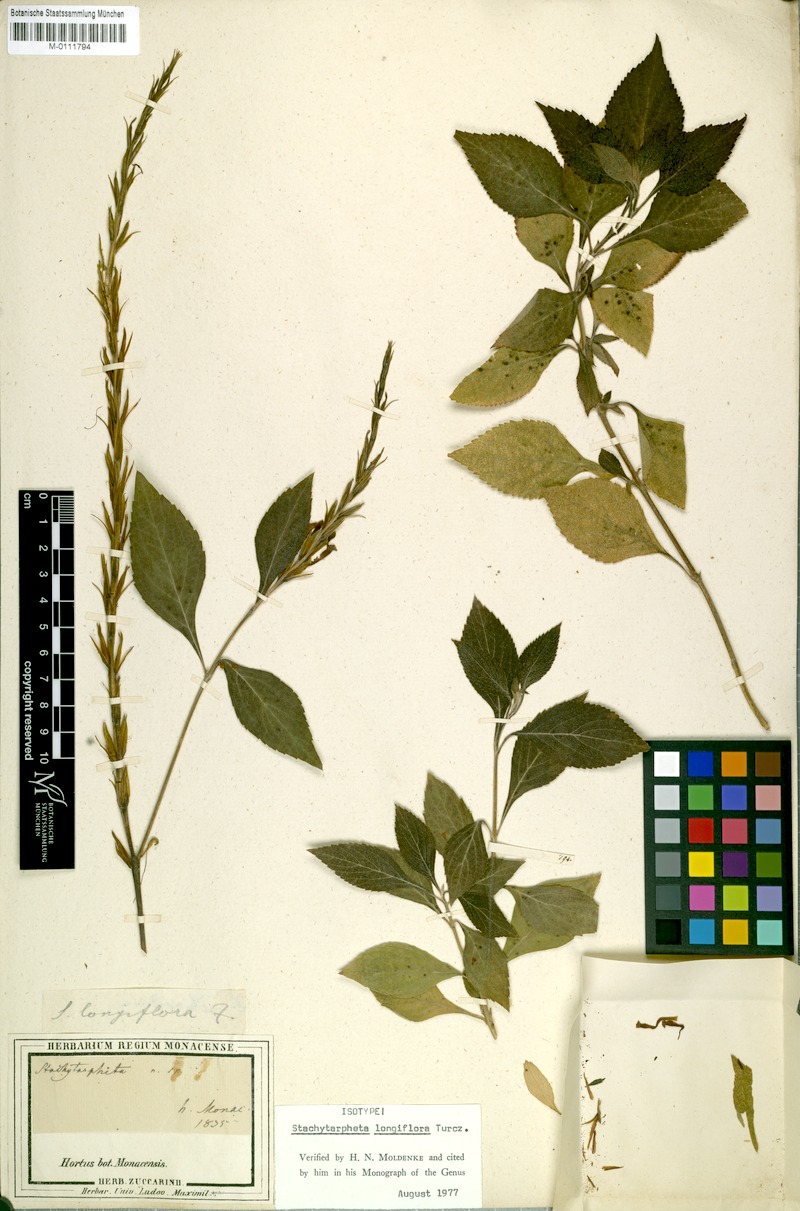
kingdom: Plantae
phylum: Tracheophyta
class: Magnoliopsida
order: Lamiales
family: Verbenaceae
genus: Stachytarpheta
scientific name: Stachytarpheta longiflora
